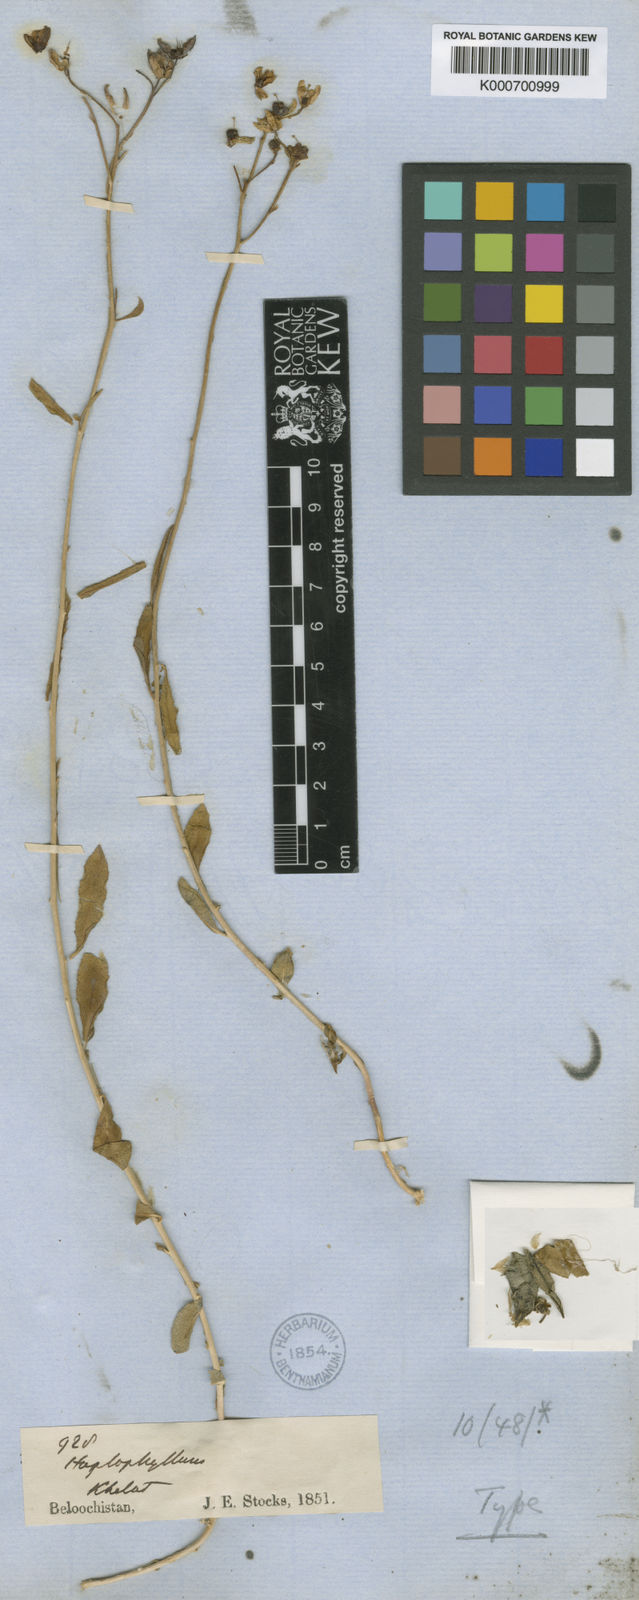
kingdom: Plantae
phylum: Tracheophyta
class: Magnoliopsida
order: Sapindales
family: Rutaceae
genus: Haplophyllum
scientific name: Haplophyllum crenulatum
